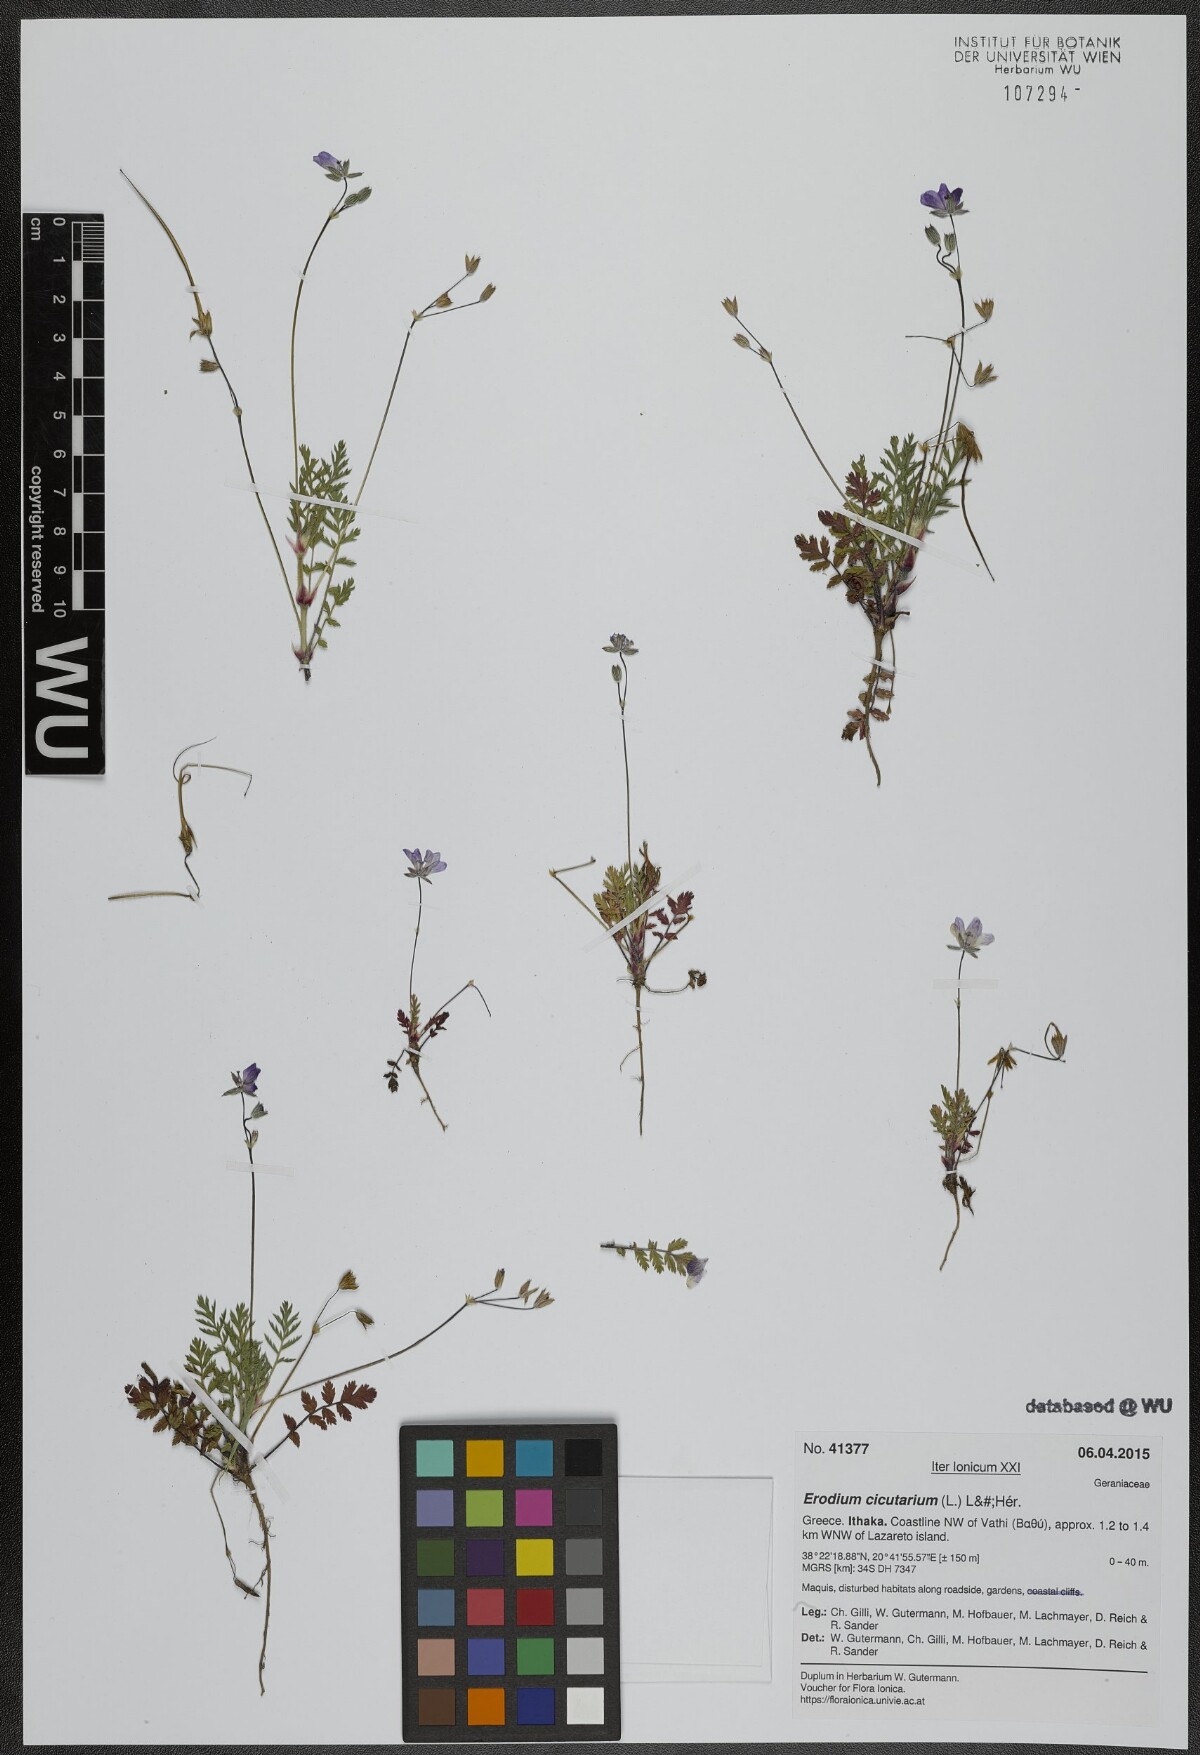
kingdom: Plantae
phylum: Tracheophyta
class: Magnoliopsida
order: Geraniales
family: Geraniaceae
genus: Erodium
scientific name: Erodium cicutarium
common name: Common stork's-bill
